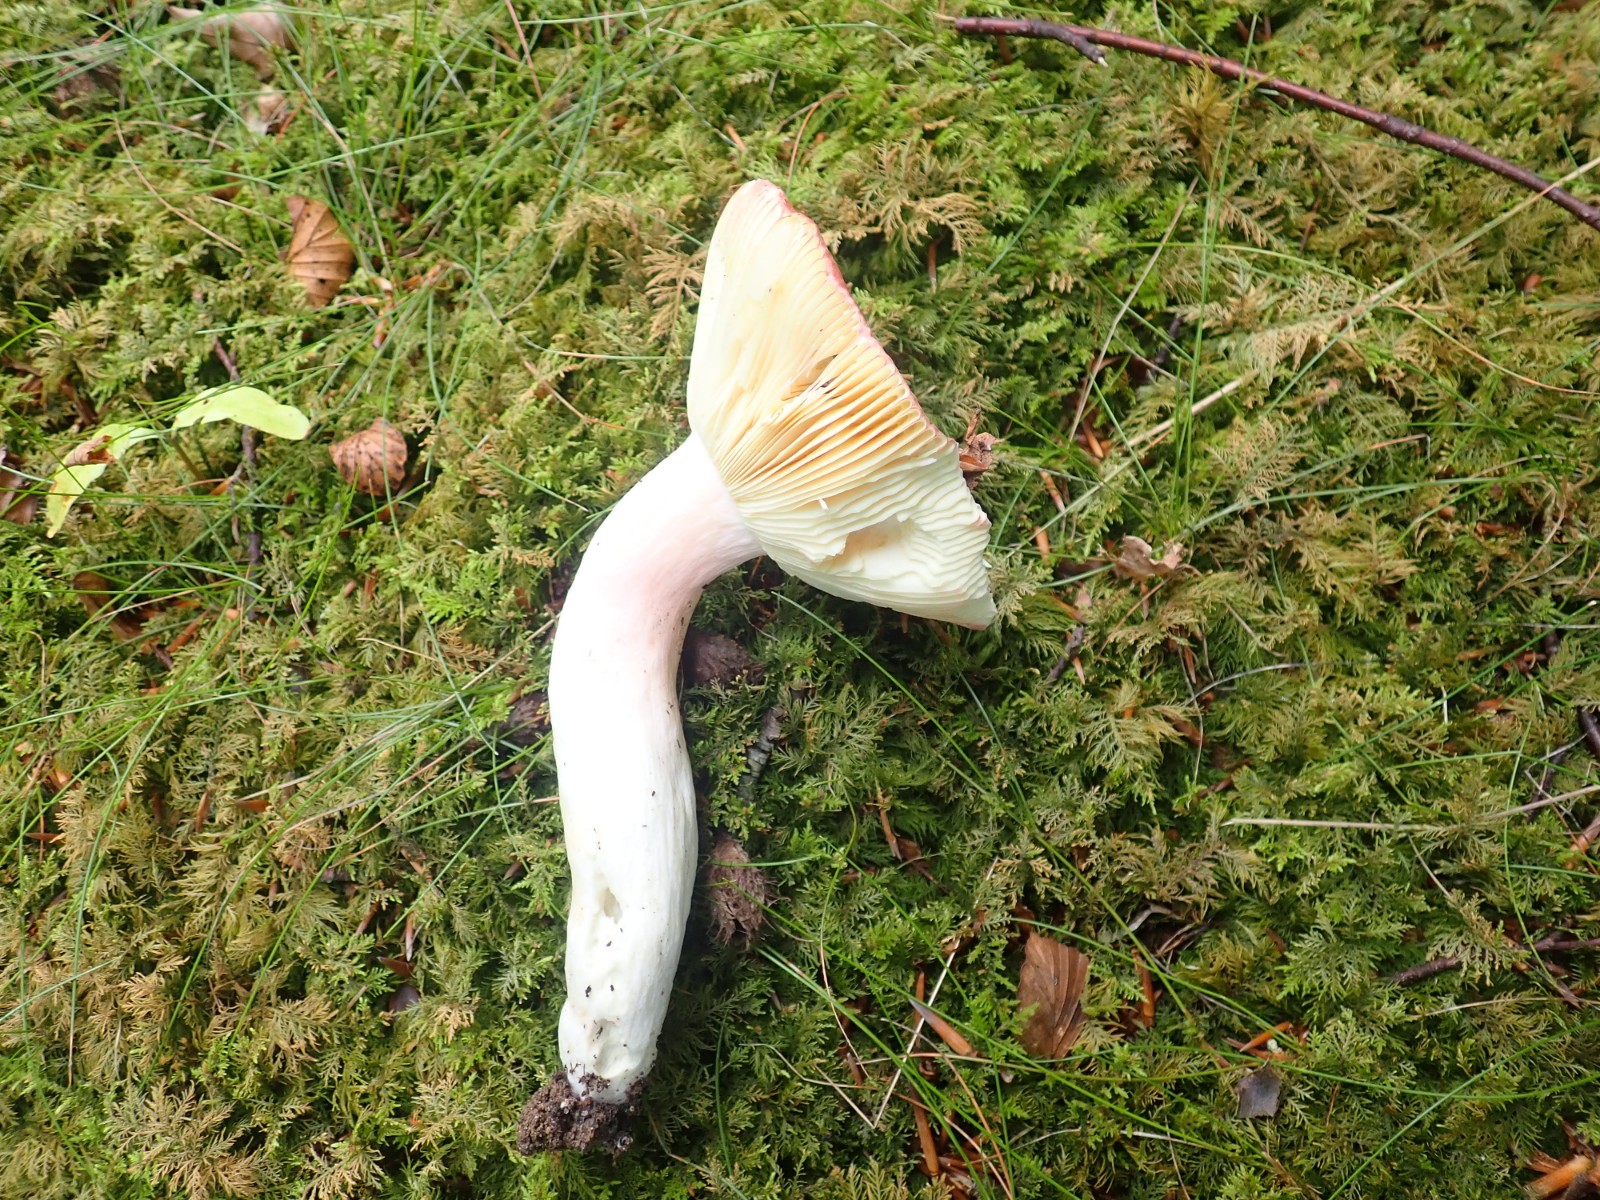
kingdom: Fungi
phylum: Basidiomycota
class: Agaricomycetes
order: Russulales
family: Russulaceae
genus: Russula
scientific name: Russula olivacea
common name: stor skørhat
